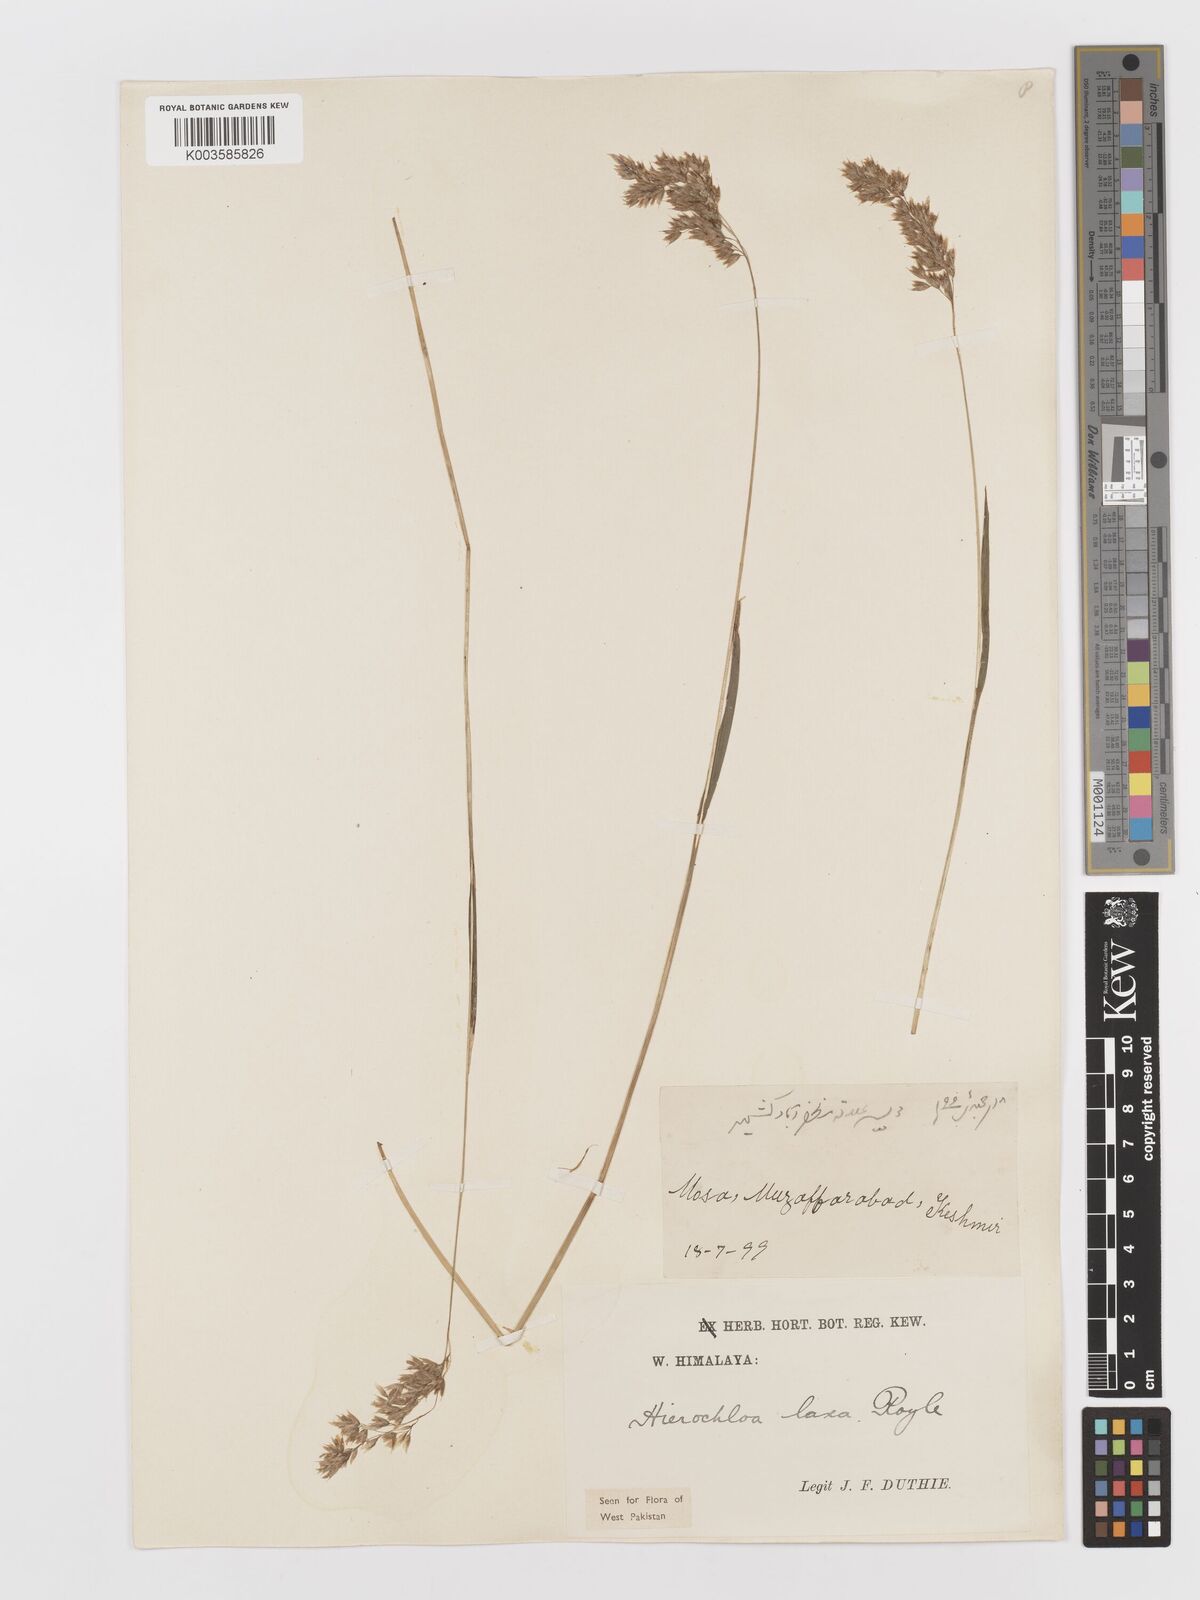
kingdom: Plantae
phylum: Tracheophyta
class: Liliopsida
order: Poales
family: Poaceae
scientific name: Poaceae
